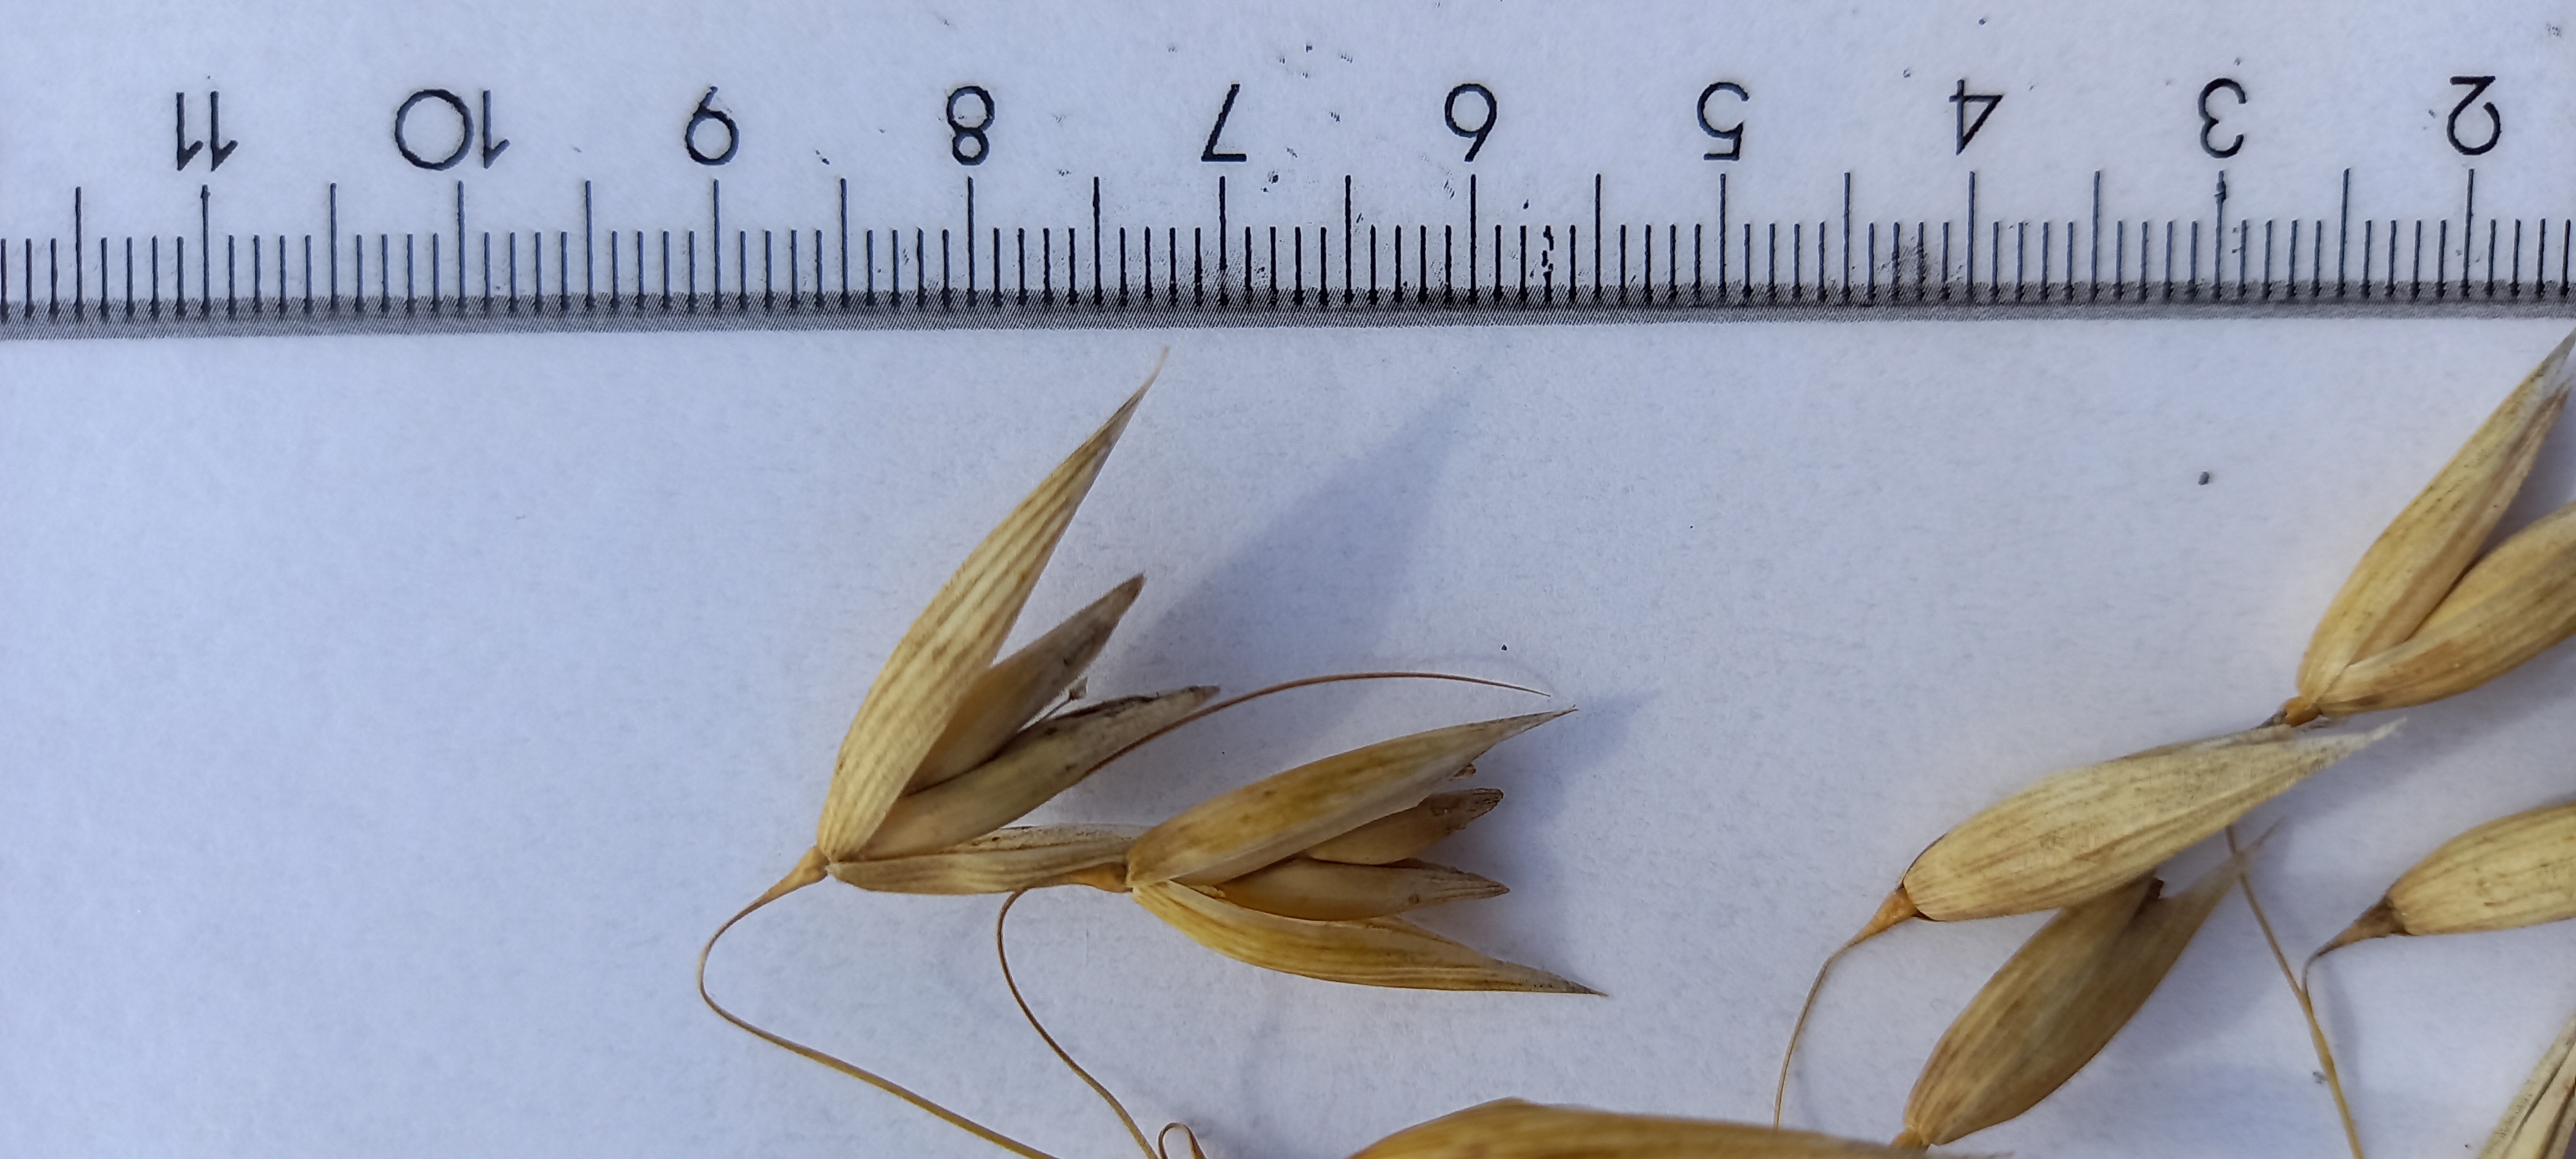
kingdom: Plantae
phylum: Tracheophyta
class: Liliopsida
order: Poales
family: Poaceae
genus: Avena
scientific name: Avena sativa
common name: Oat
